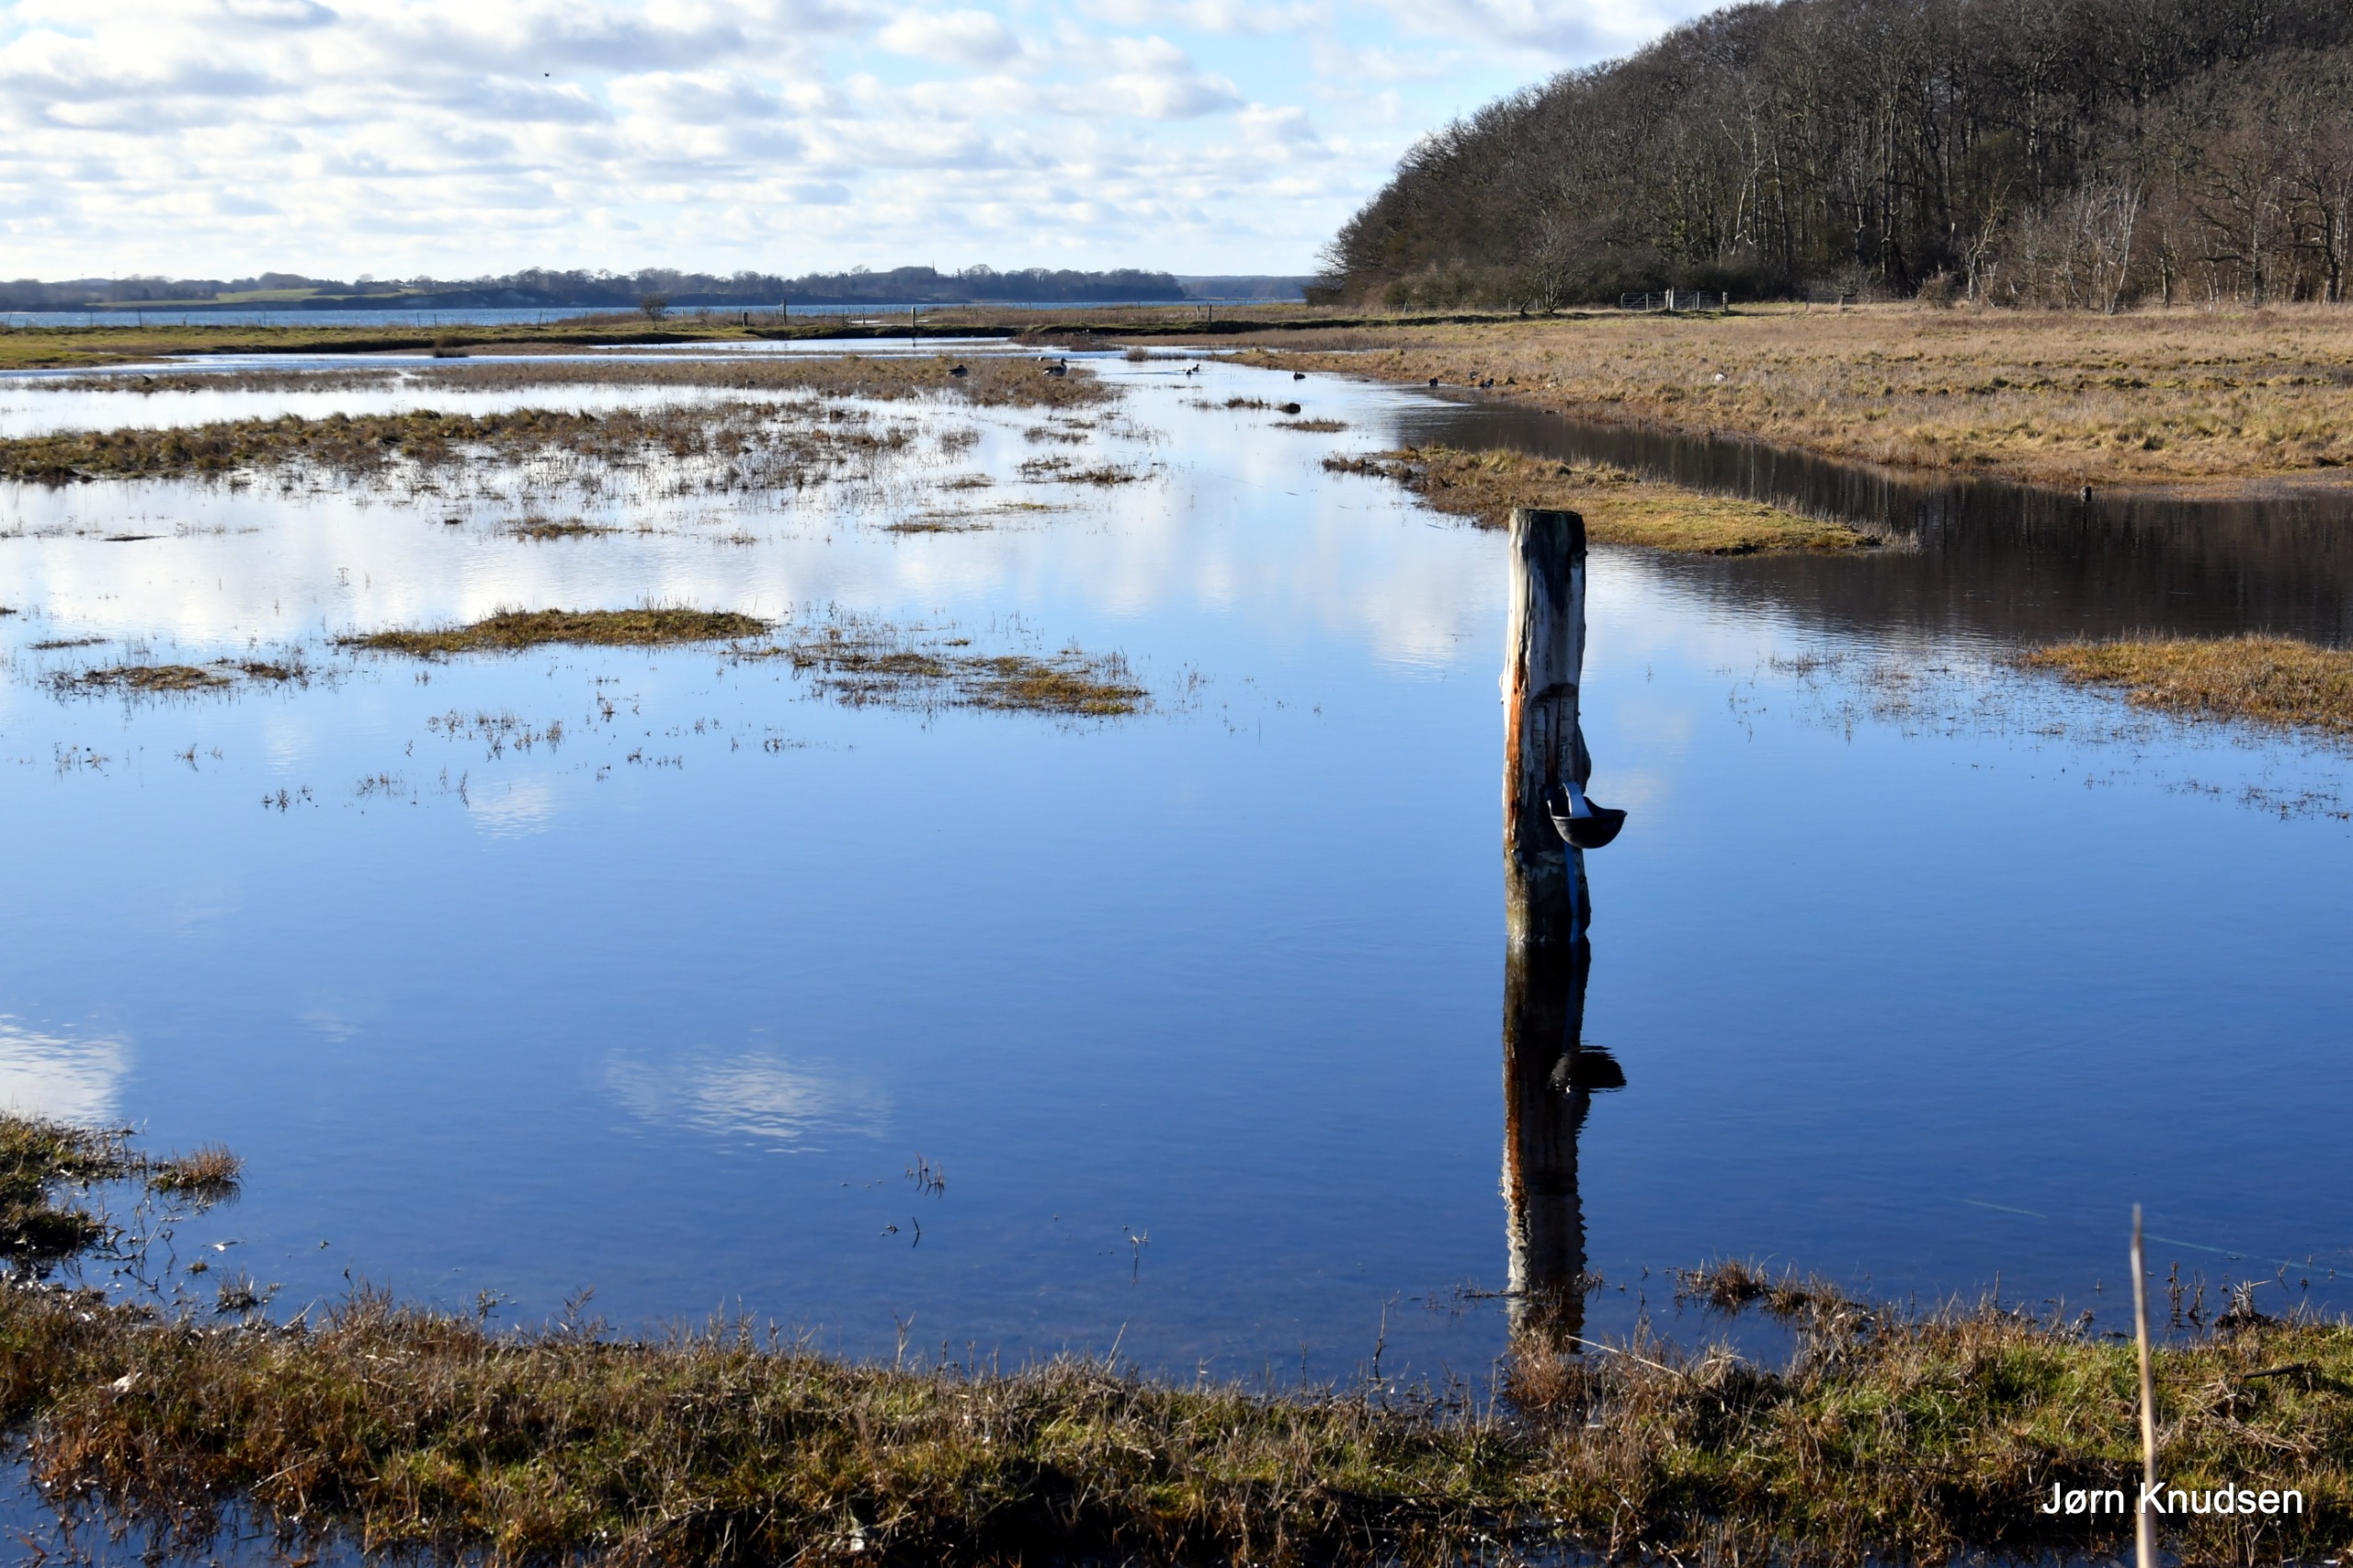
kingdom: Animalia
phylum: Chordata
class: Aves
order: Anseriformes
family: Anatidae
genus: Anser
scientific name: Anser anser
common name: Grågås
